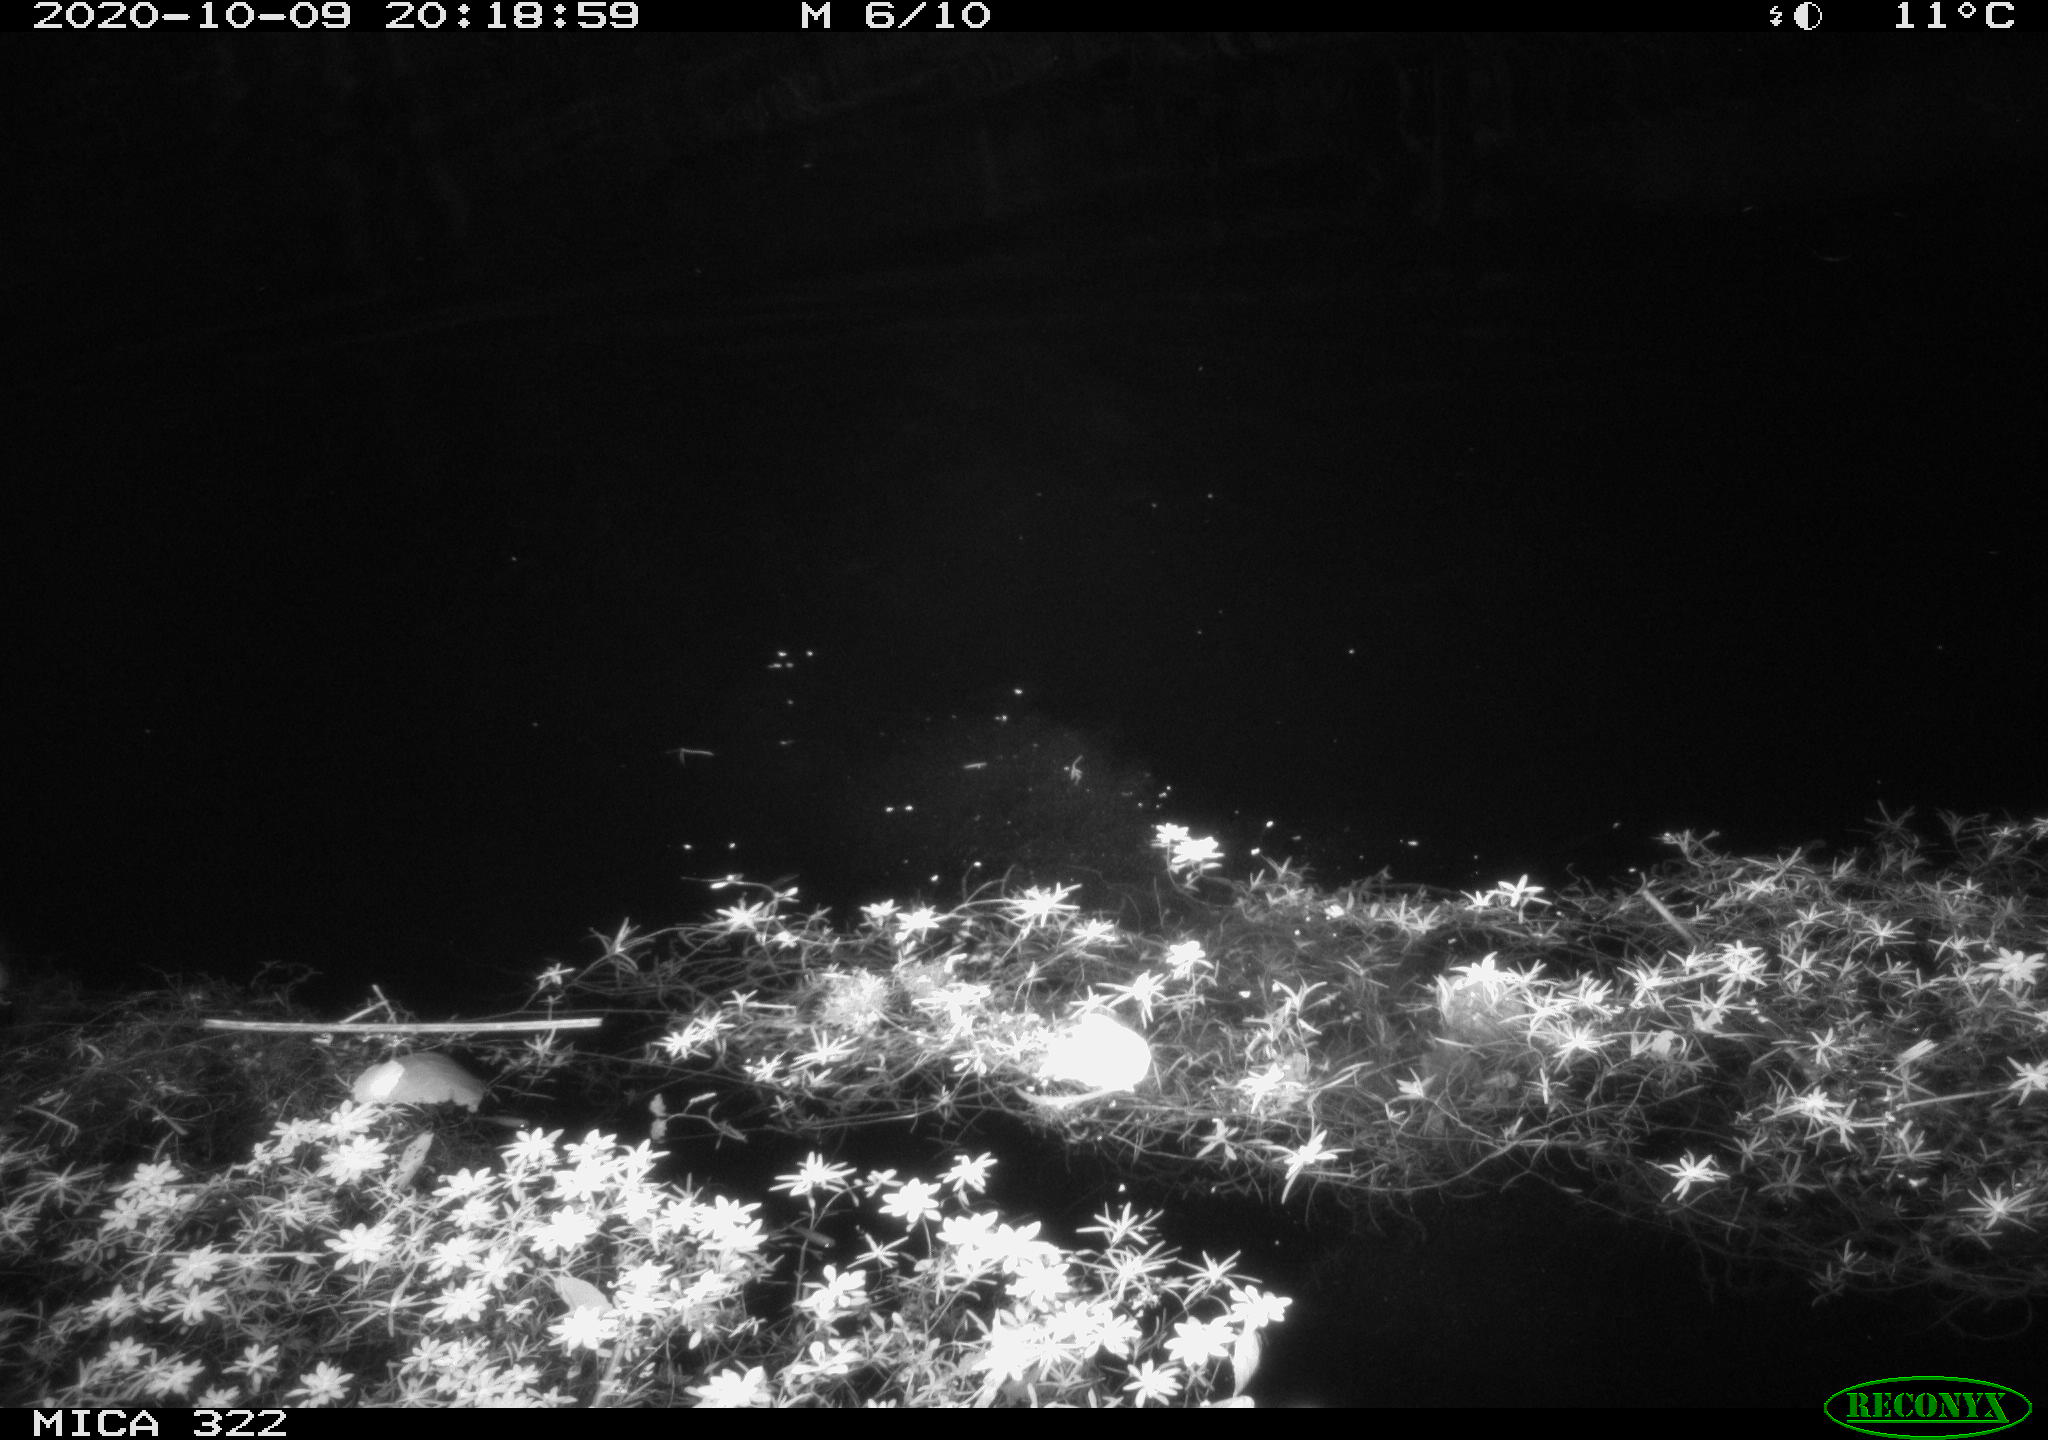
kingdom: Animalia
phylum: Chordata
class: Mammalia
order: Rodentia
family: Muridae
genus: Rattus
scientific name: Rattus norvegicus
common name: Brown rat
